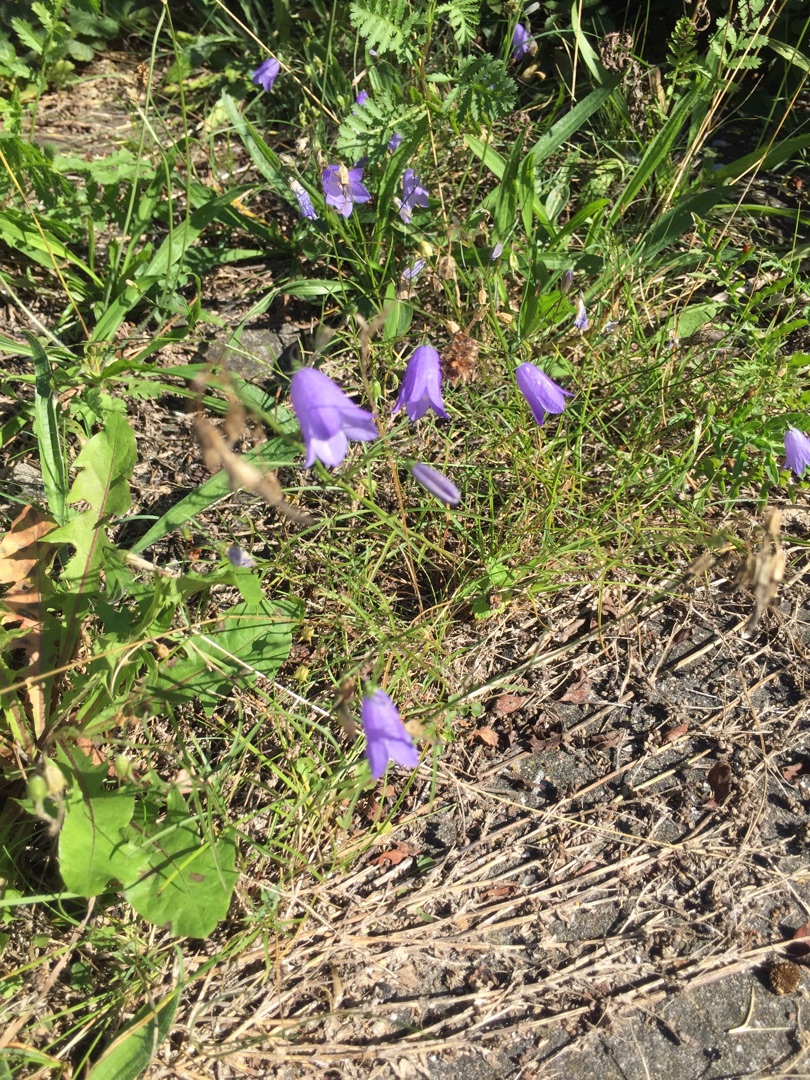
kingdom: Plantae
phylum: Tracheophyta
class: Magnoliopsida
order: Asterales
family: Campanulaceae
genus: Campanula
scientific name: Campanula rotundifolia
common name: Liden klokke
